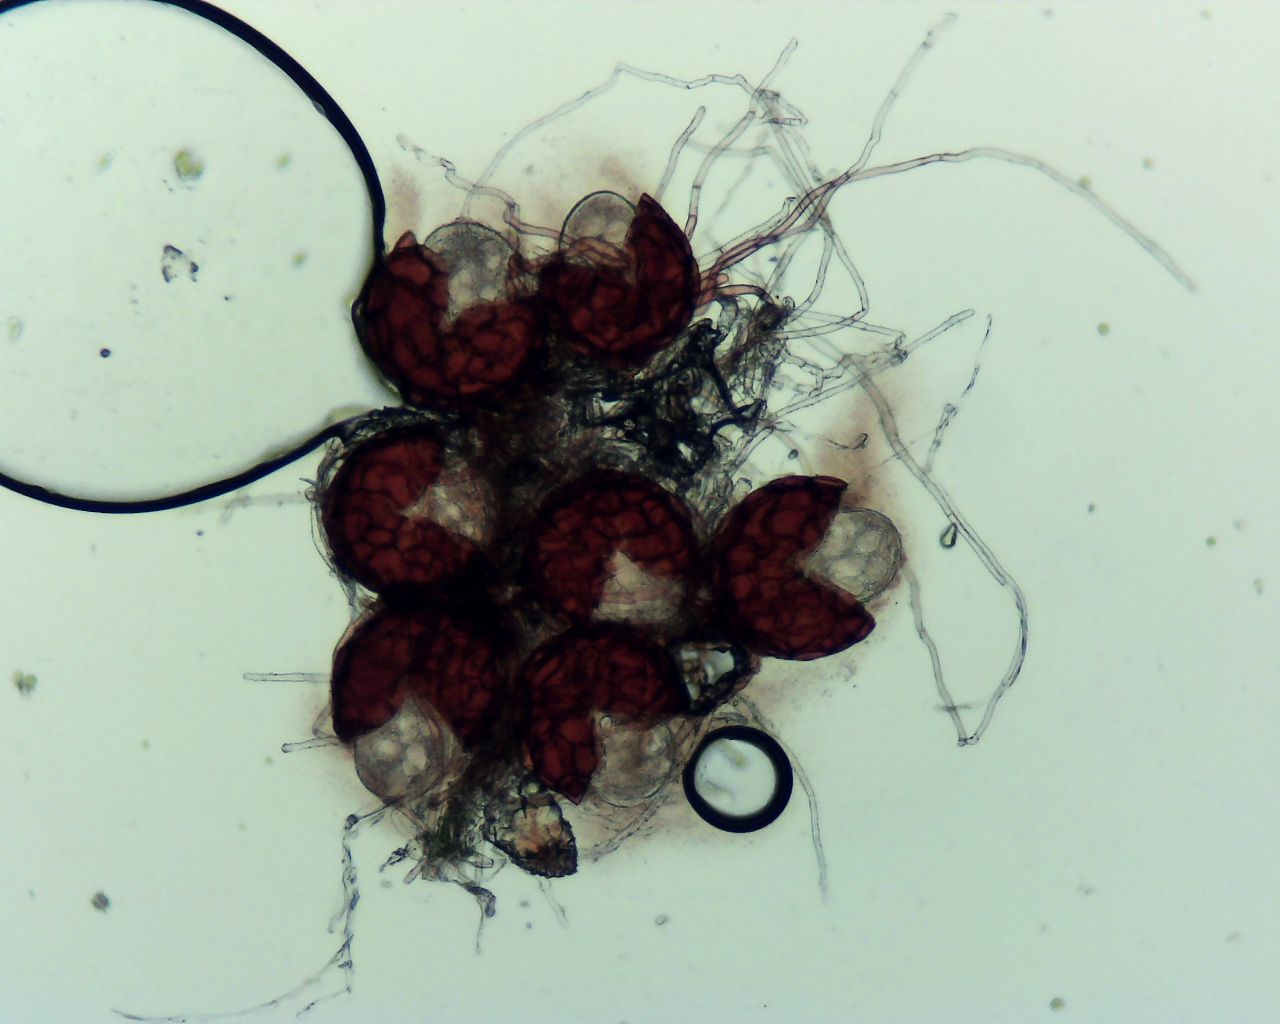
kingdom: Fungi
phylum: Ascomycota
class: Leotiomycetes
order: Helotiales
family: Erysiphaceae
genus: Podosphaera
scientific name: Podosphaera balsaminae
